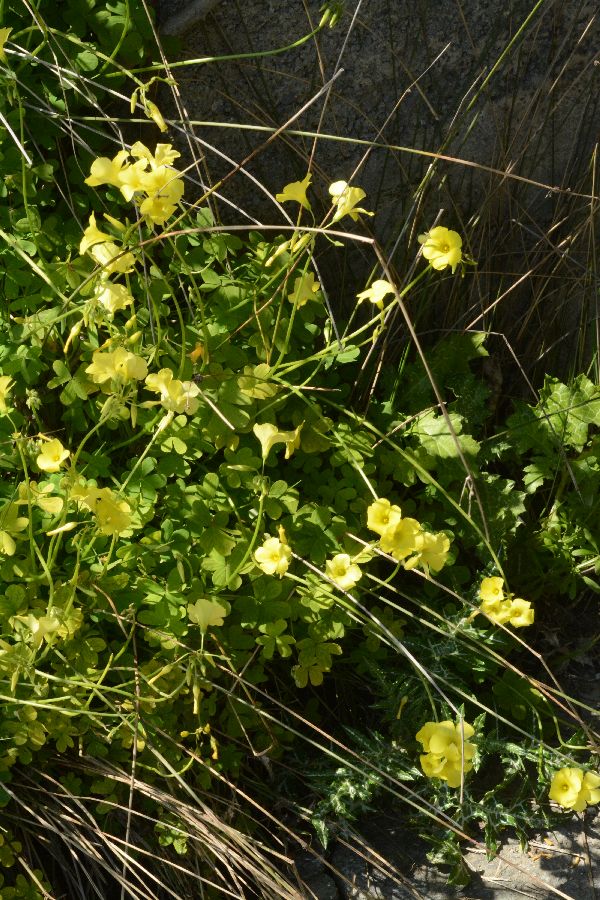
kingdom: Plantae
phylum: Tracheophyta
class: Magnoliopsida
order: Oxalidales
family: Oxalidaceae
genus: Oxalis
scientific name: Oxalis pes-caprae
